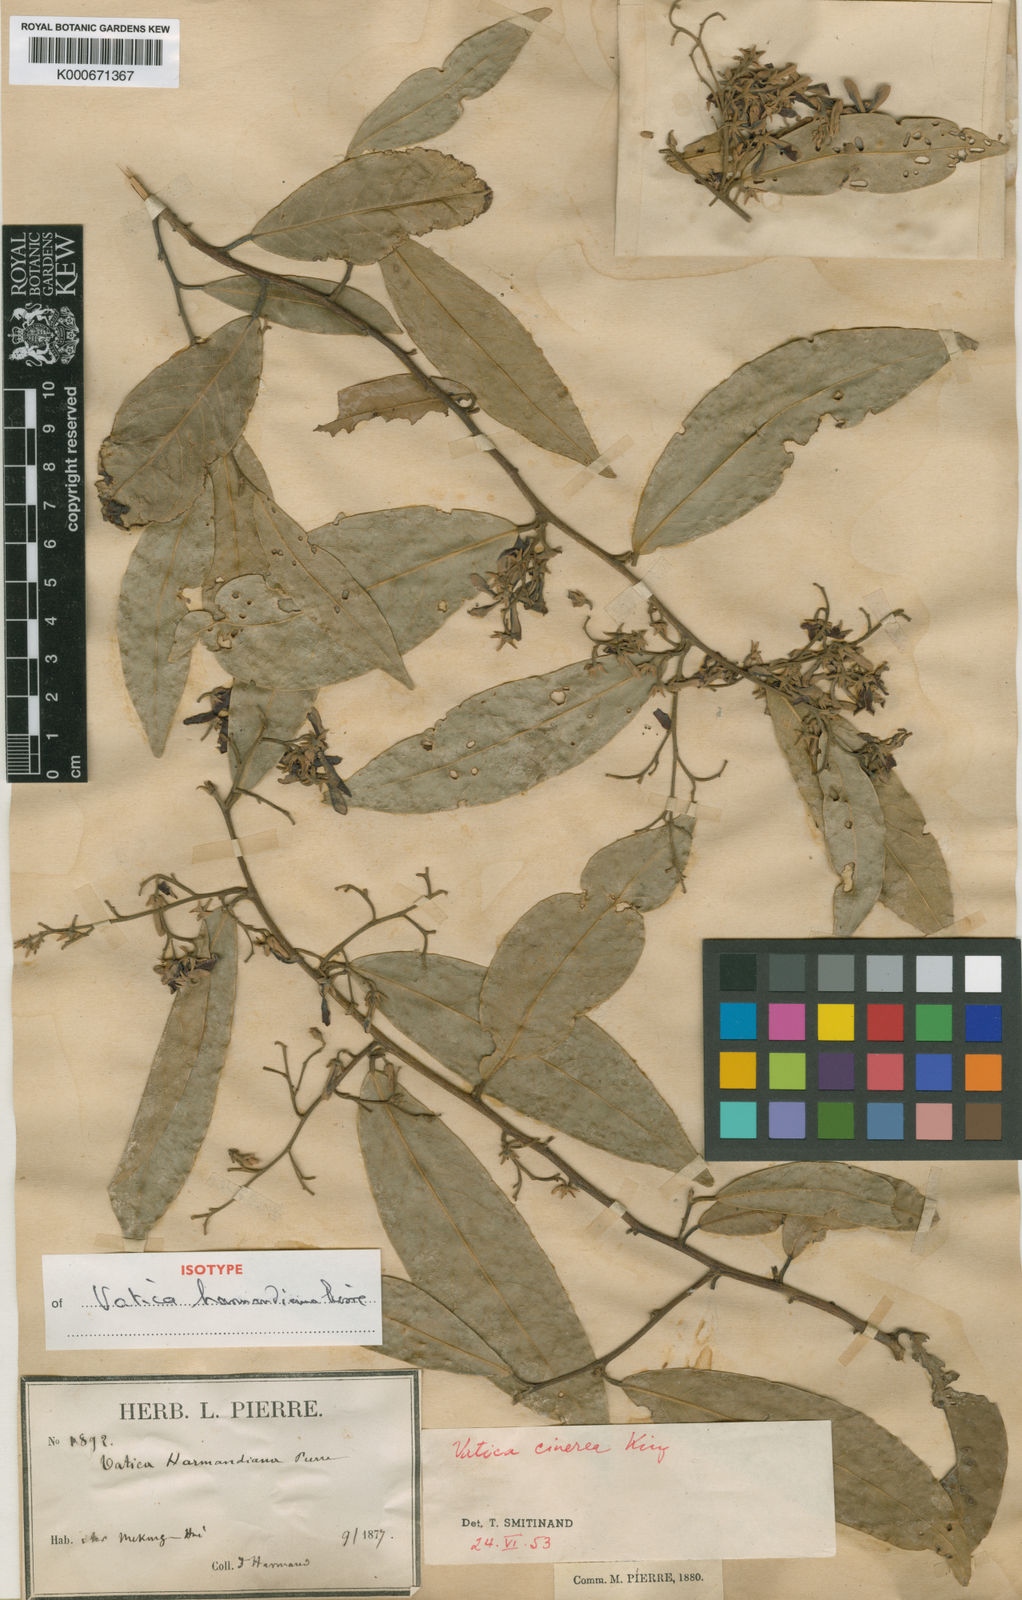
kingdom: Plantae
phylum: Tracheophyta
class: Magnoliopsida
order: Malvales
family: Dipterocarpaceae
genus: Vatica
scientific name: Vatica harmandiana
